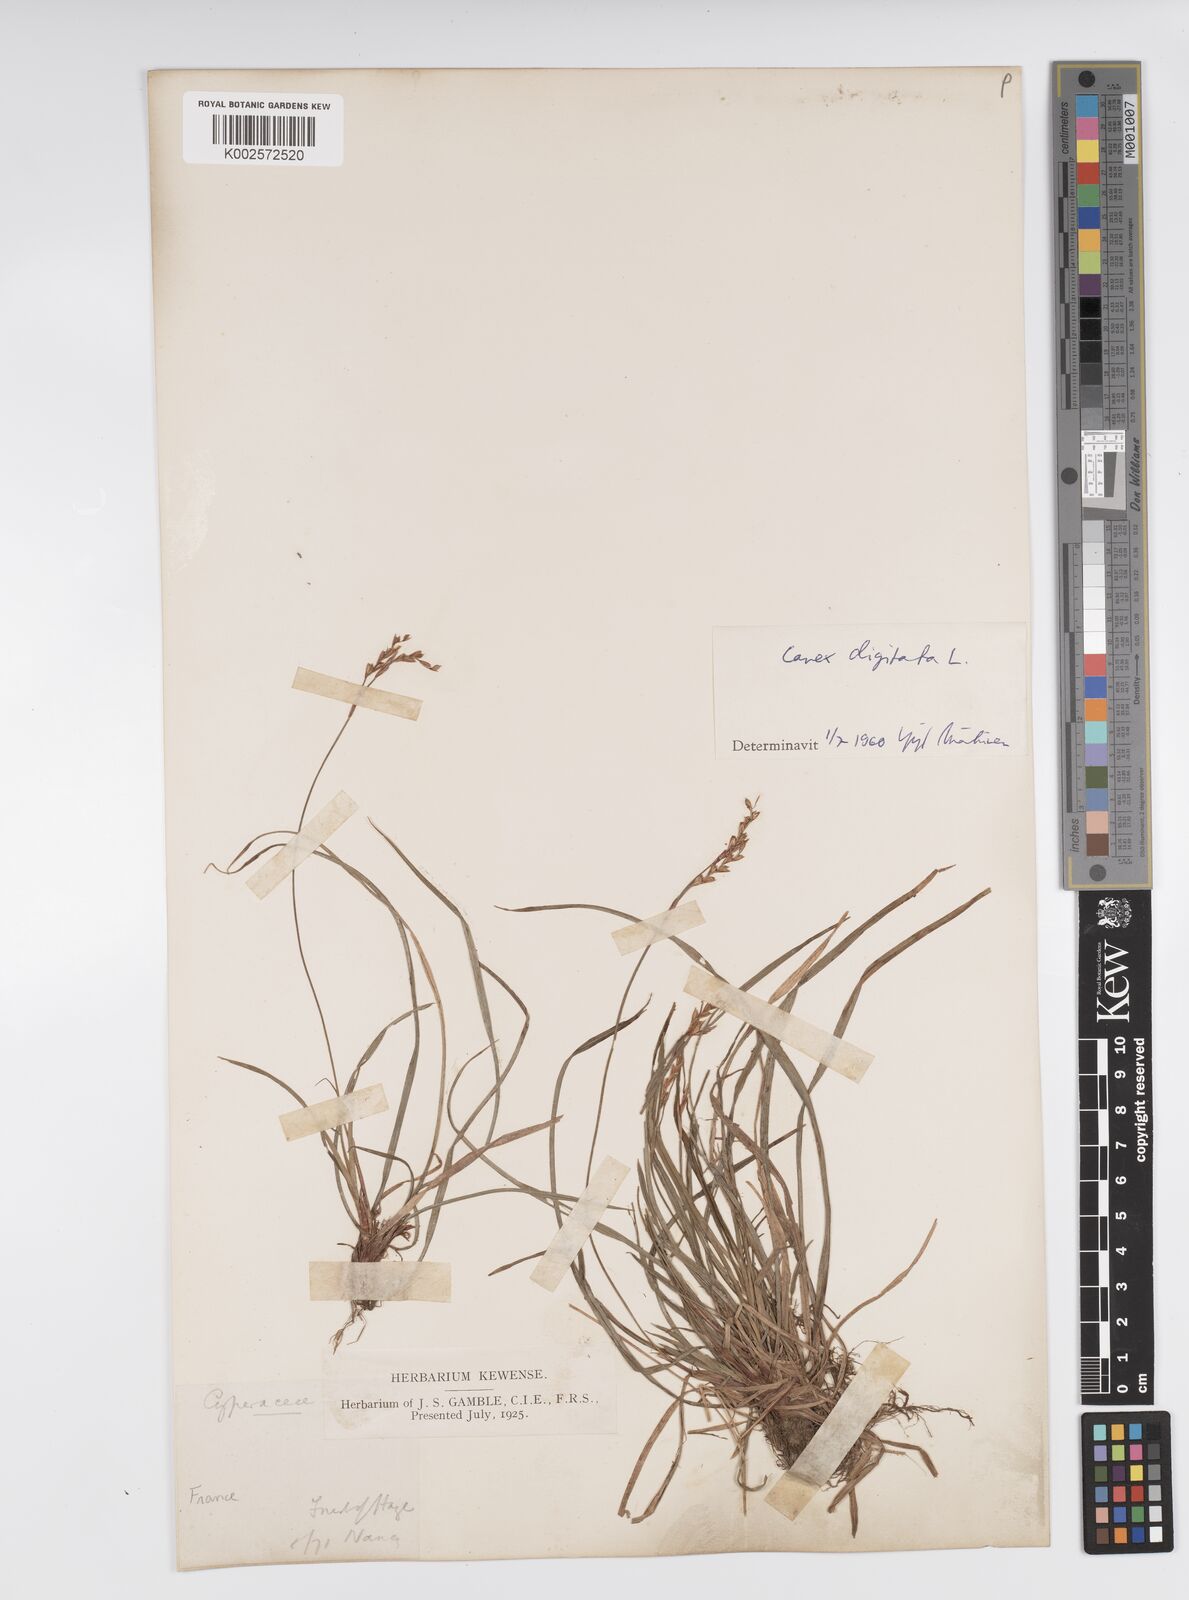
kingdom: Plantae
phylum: Tracheophyta
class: Liliopsida
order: Poales
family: Cyperaceae
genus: Carex
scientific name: Carex digitata
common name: Fingered sedge
